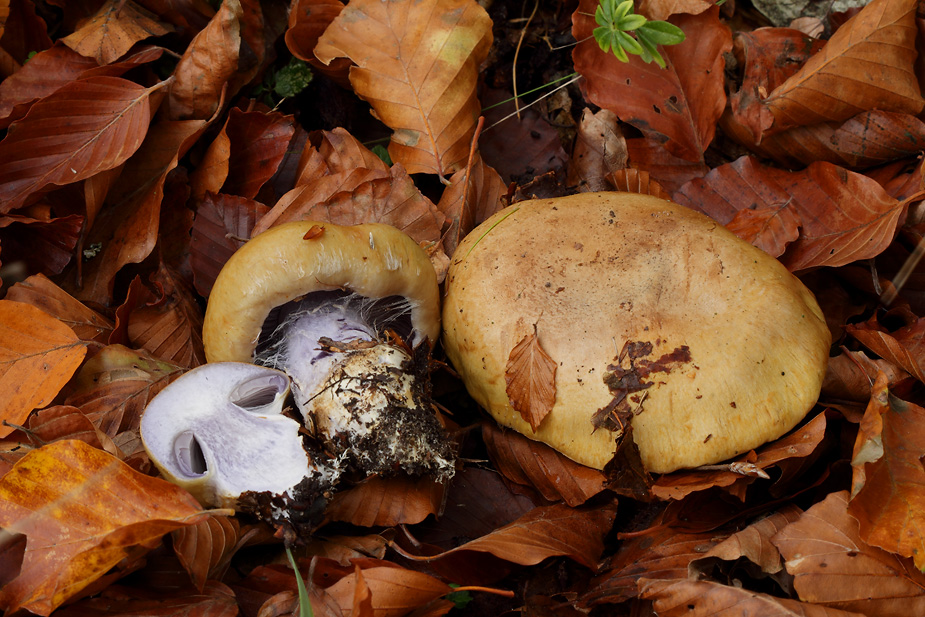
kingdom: Fungi
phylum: Basidiomycota
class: Agaricomycetes
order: Agaricales
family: Cortinariaceae
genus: Cortinarius
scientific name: Cortinarius anserinus
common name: bøge-slørhat
